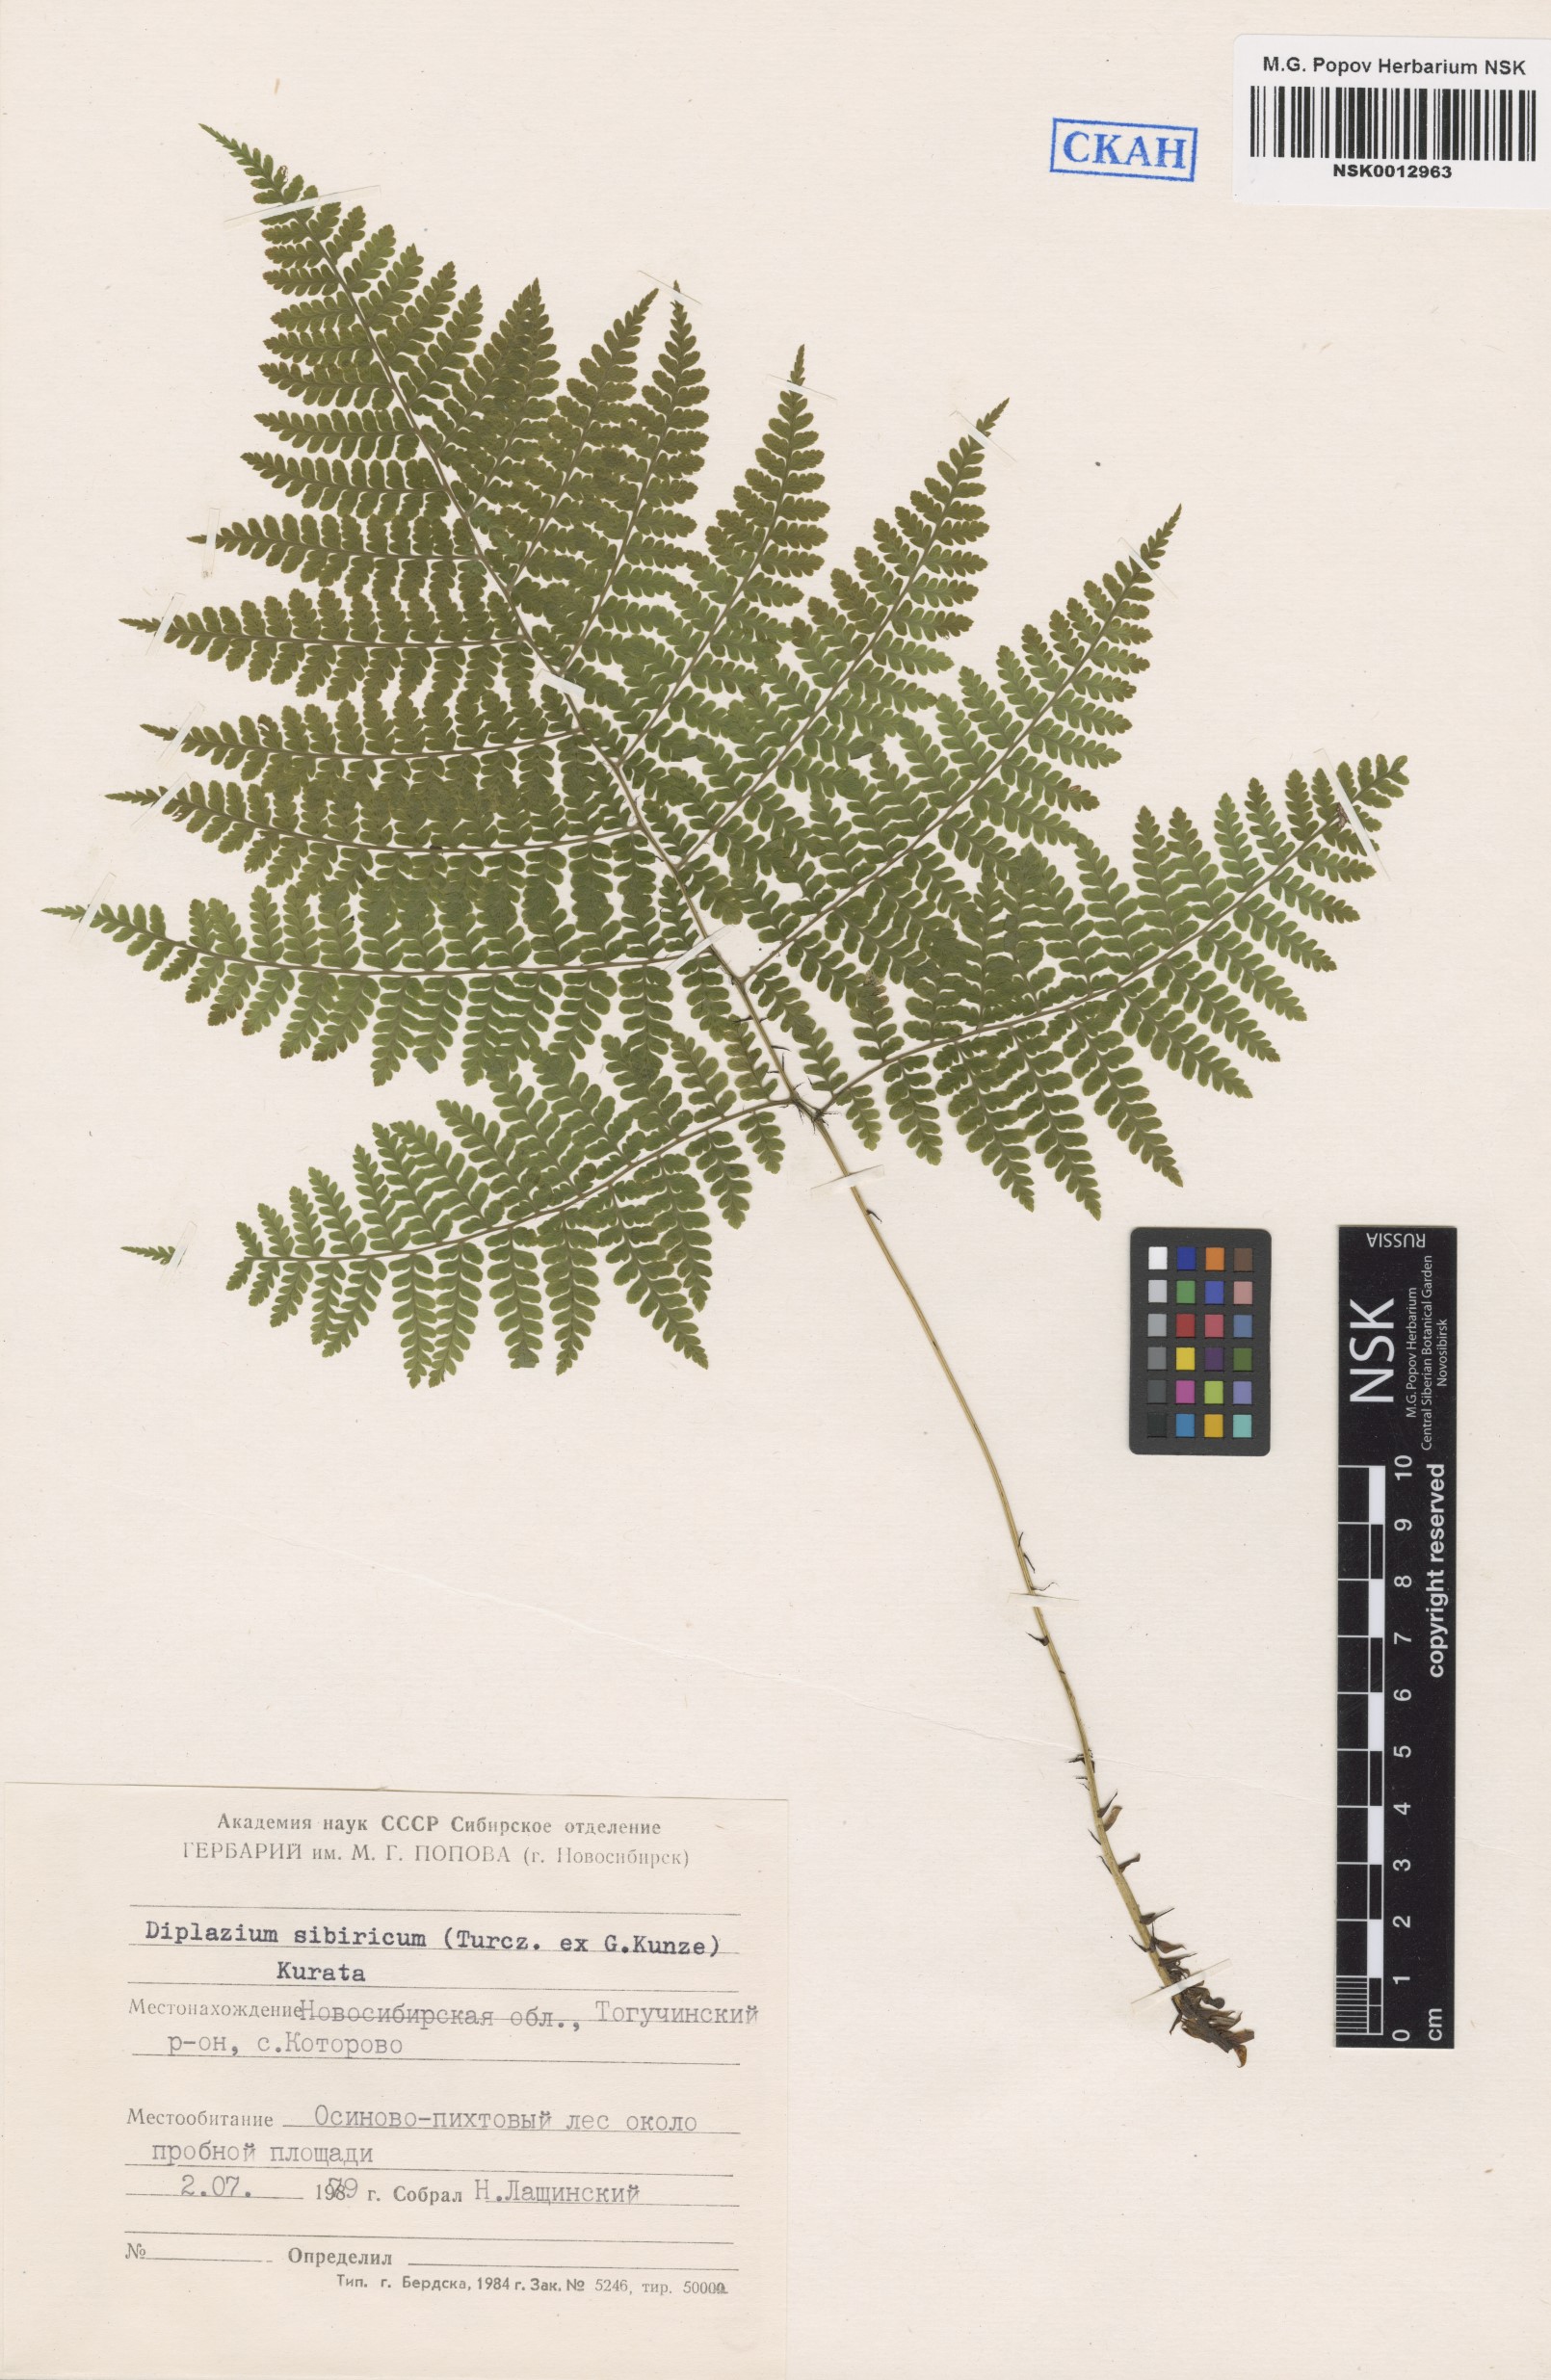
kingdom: Plantae
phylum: Tracheophyta
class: Polypodiopsida
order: Polypodiales
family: Athyriaceae
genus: Diplazium
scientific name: Diplazium sibiricum
